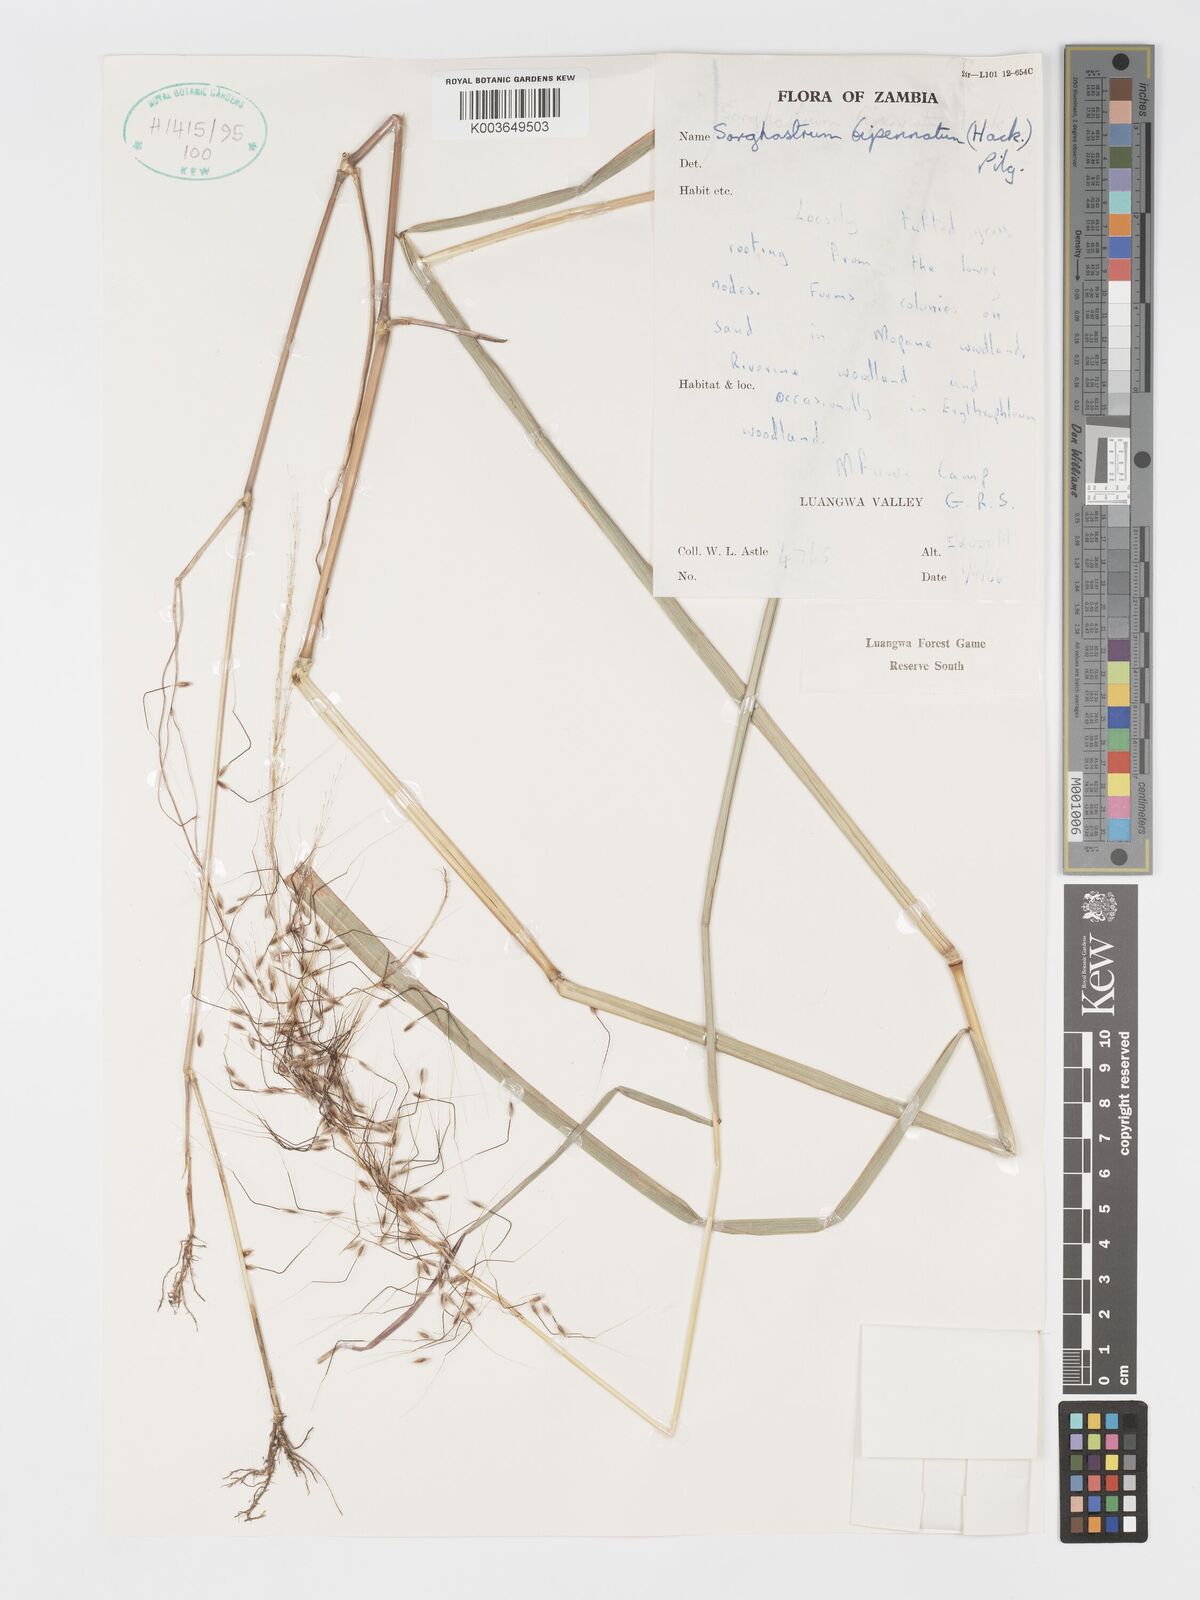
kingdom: Plantae
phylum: Tracheophyta
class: Liliopsida
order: Poales
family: Poaceae
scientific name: Poaceae
